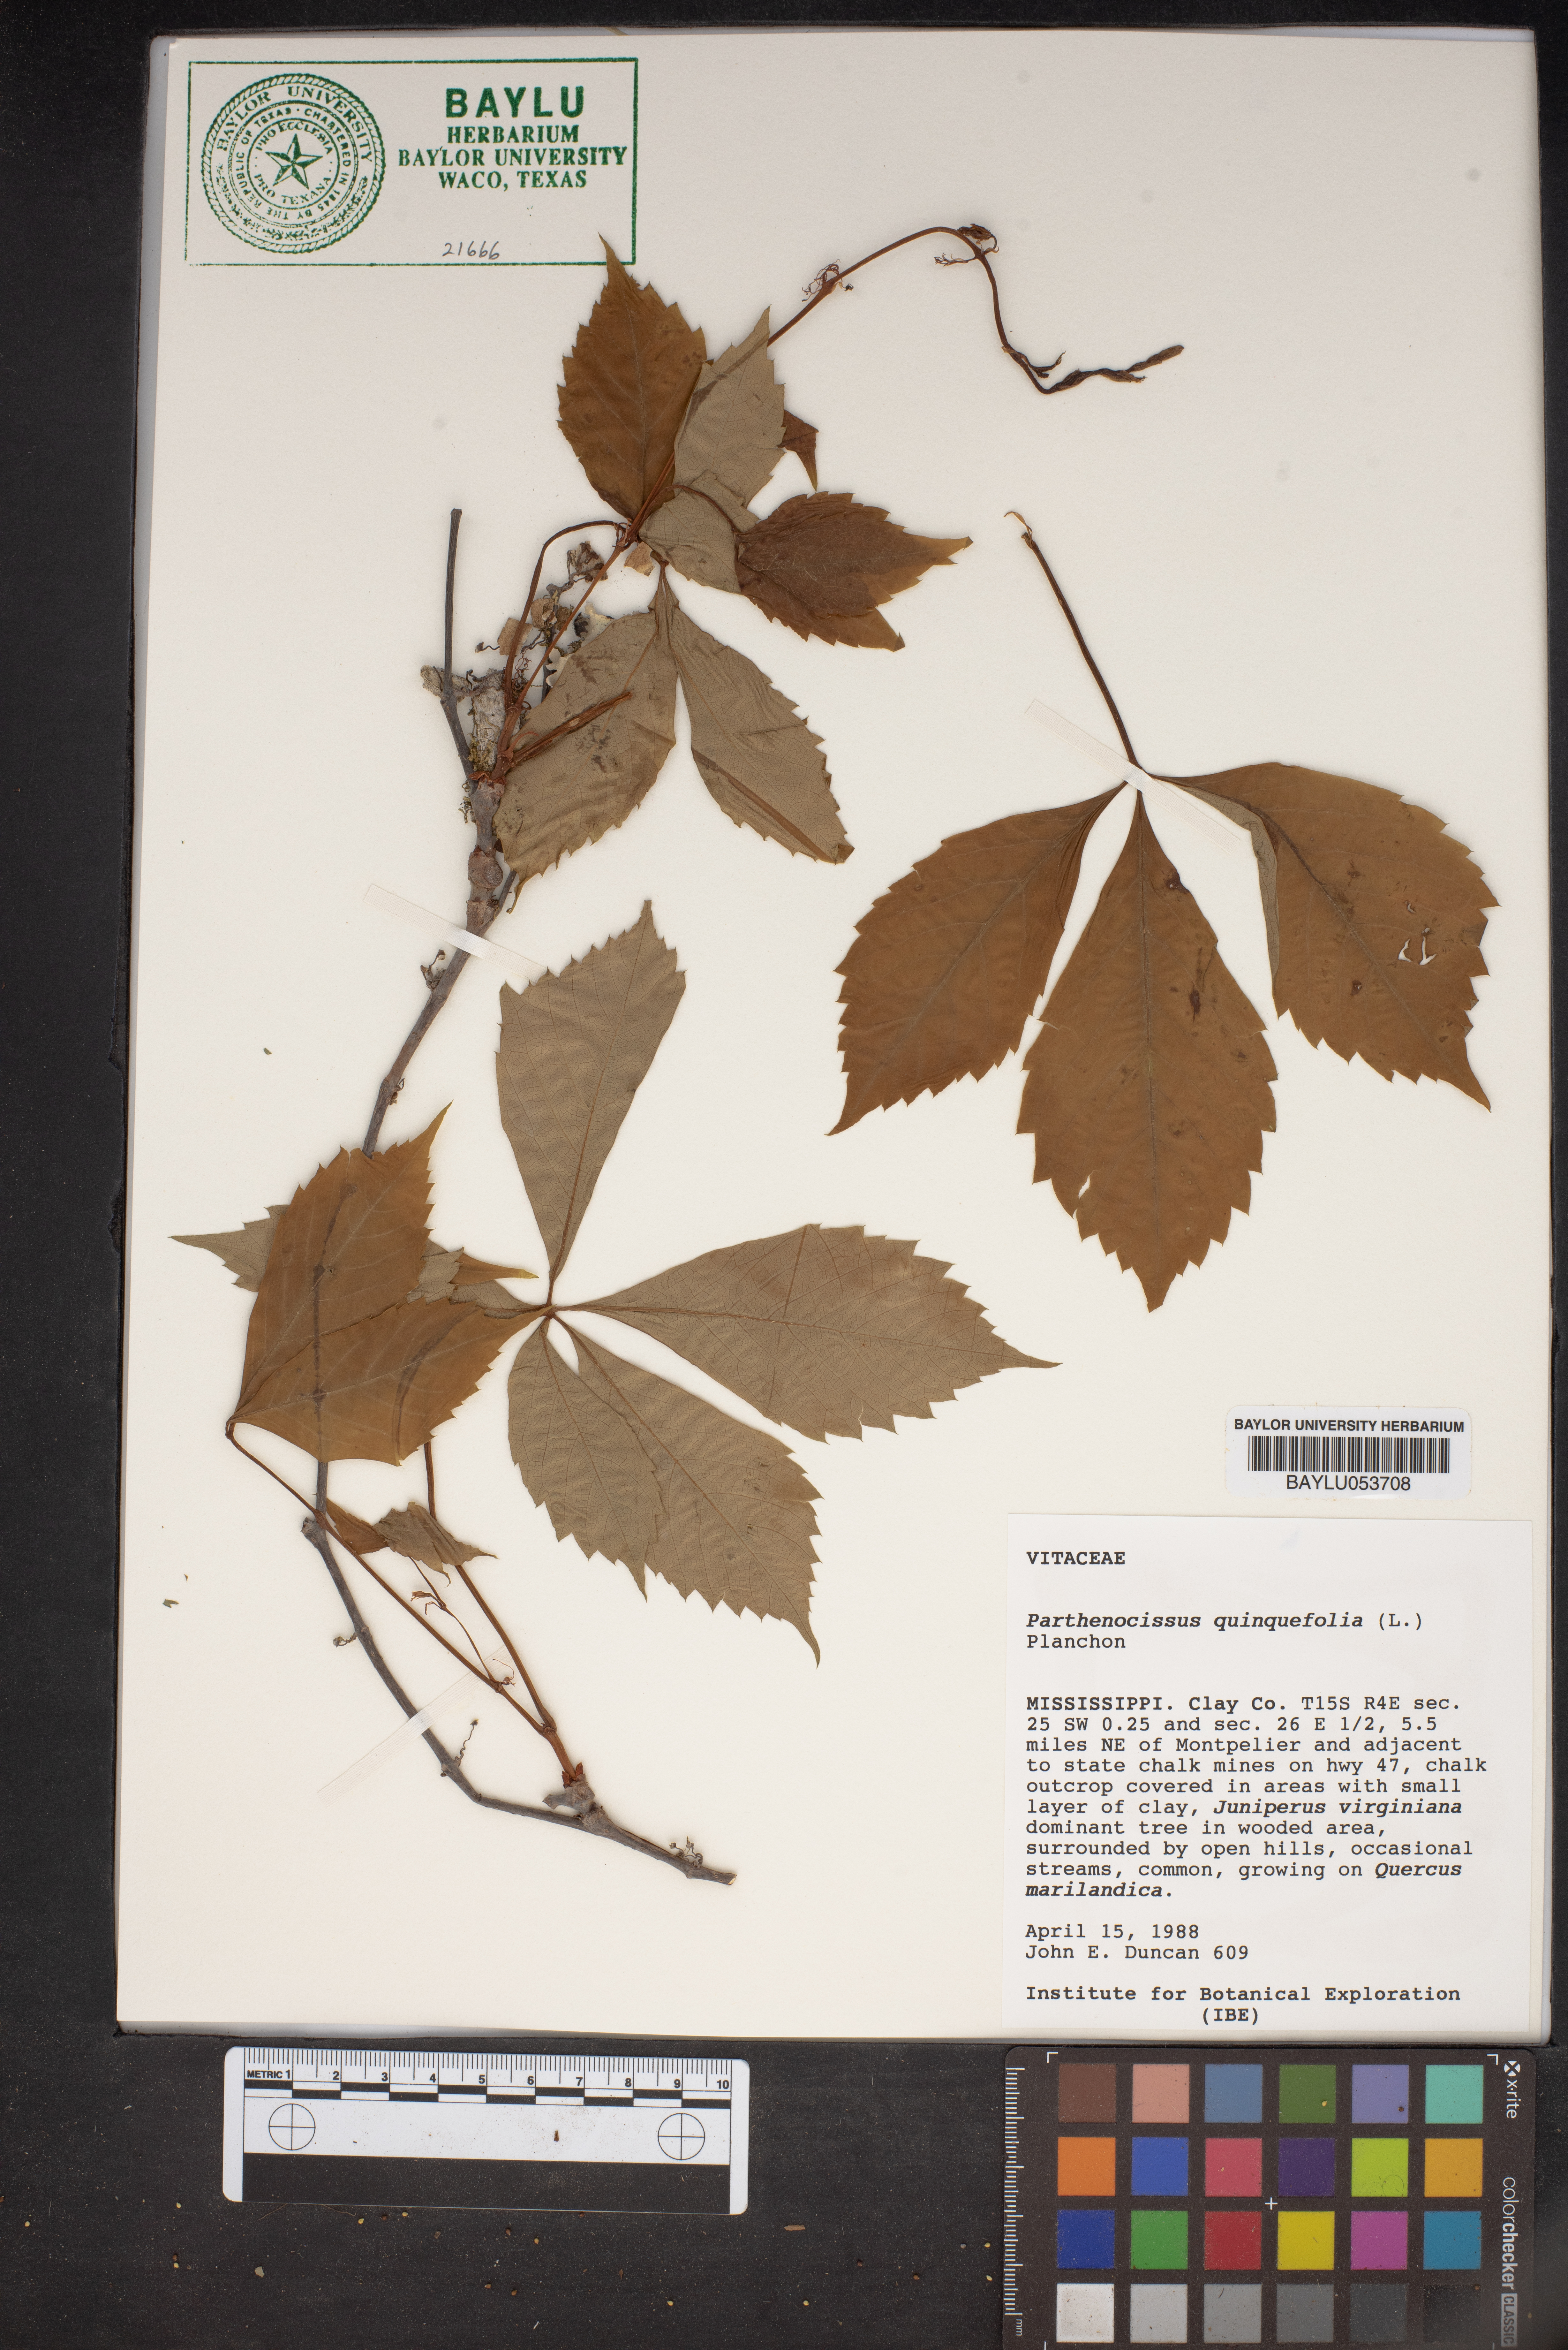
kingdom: Plantae
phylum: Tracheophyta
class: Magnoliopsida
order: Vitales
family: Vitaceae
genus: Parthenocissus
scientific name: Parthenocissus quinquefolia
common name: Virginia-creeper
